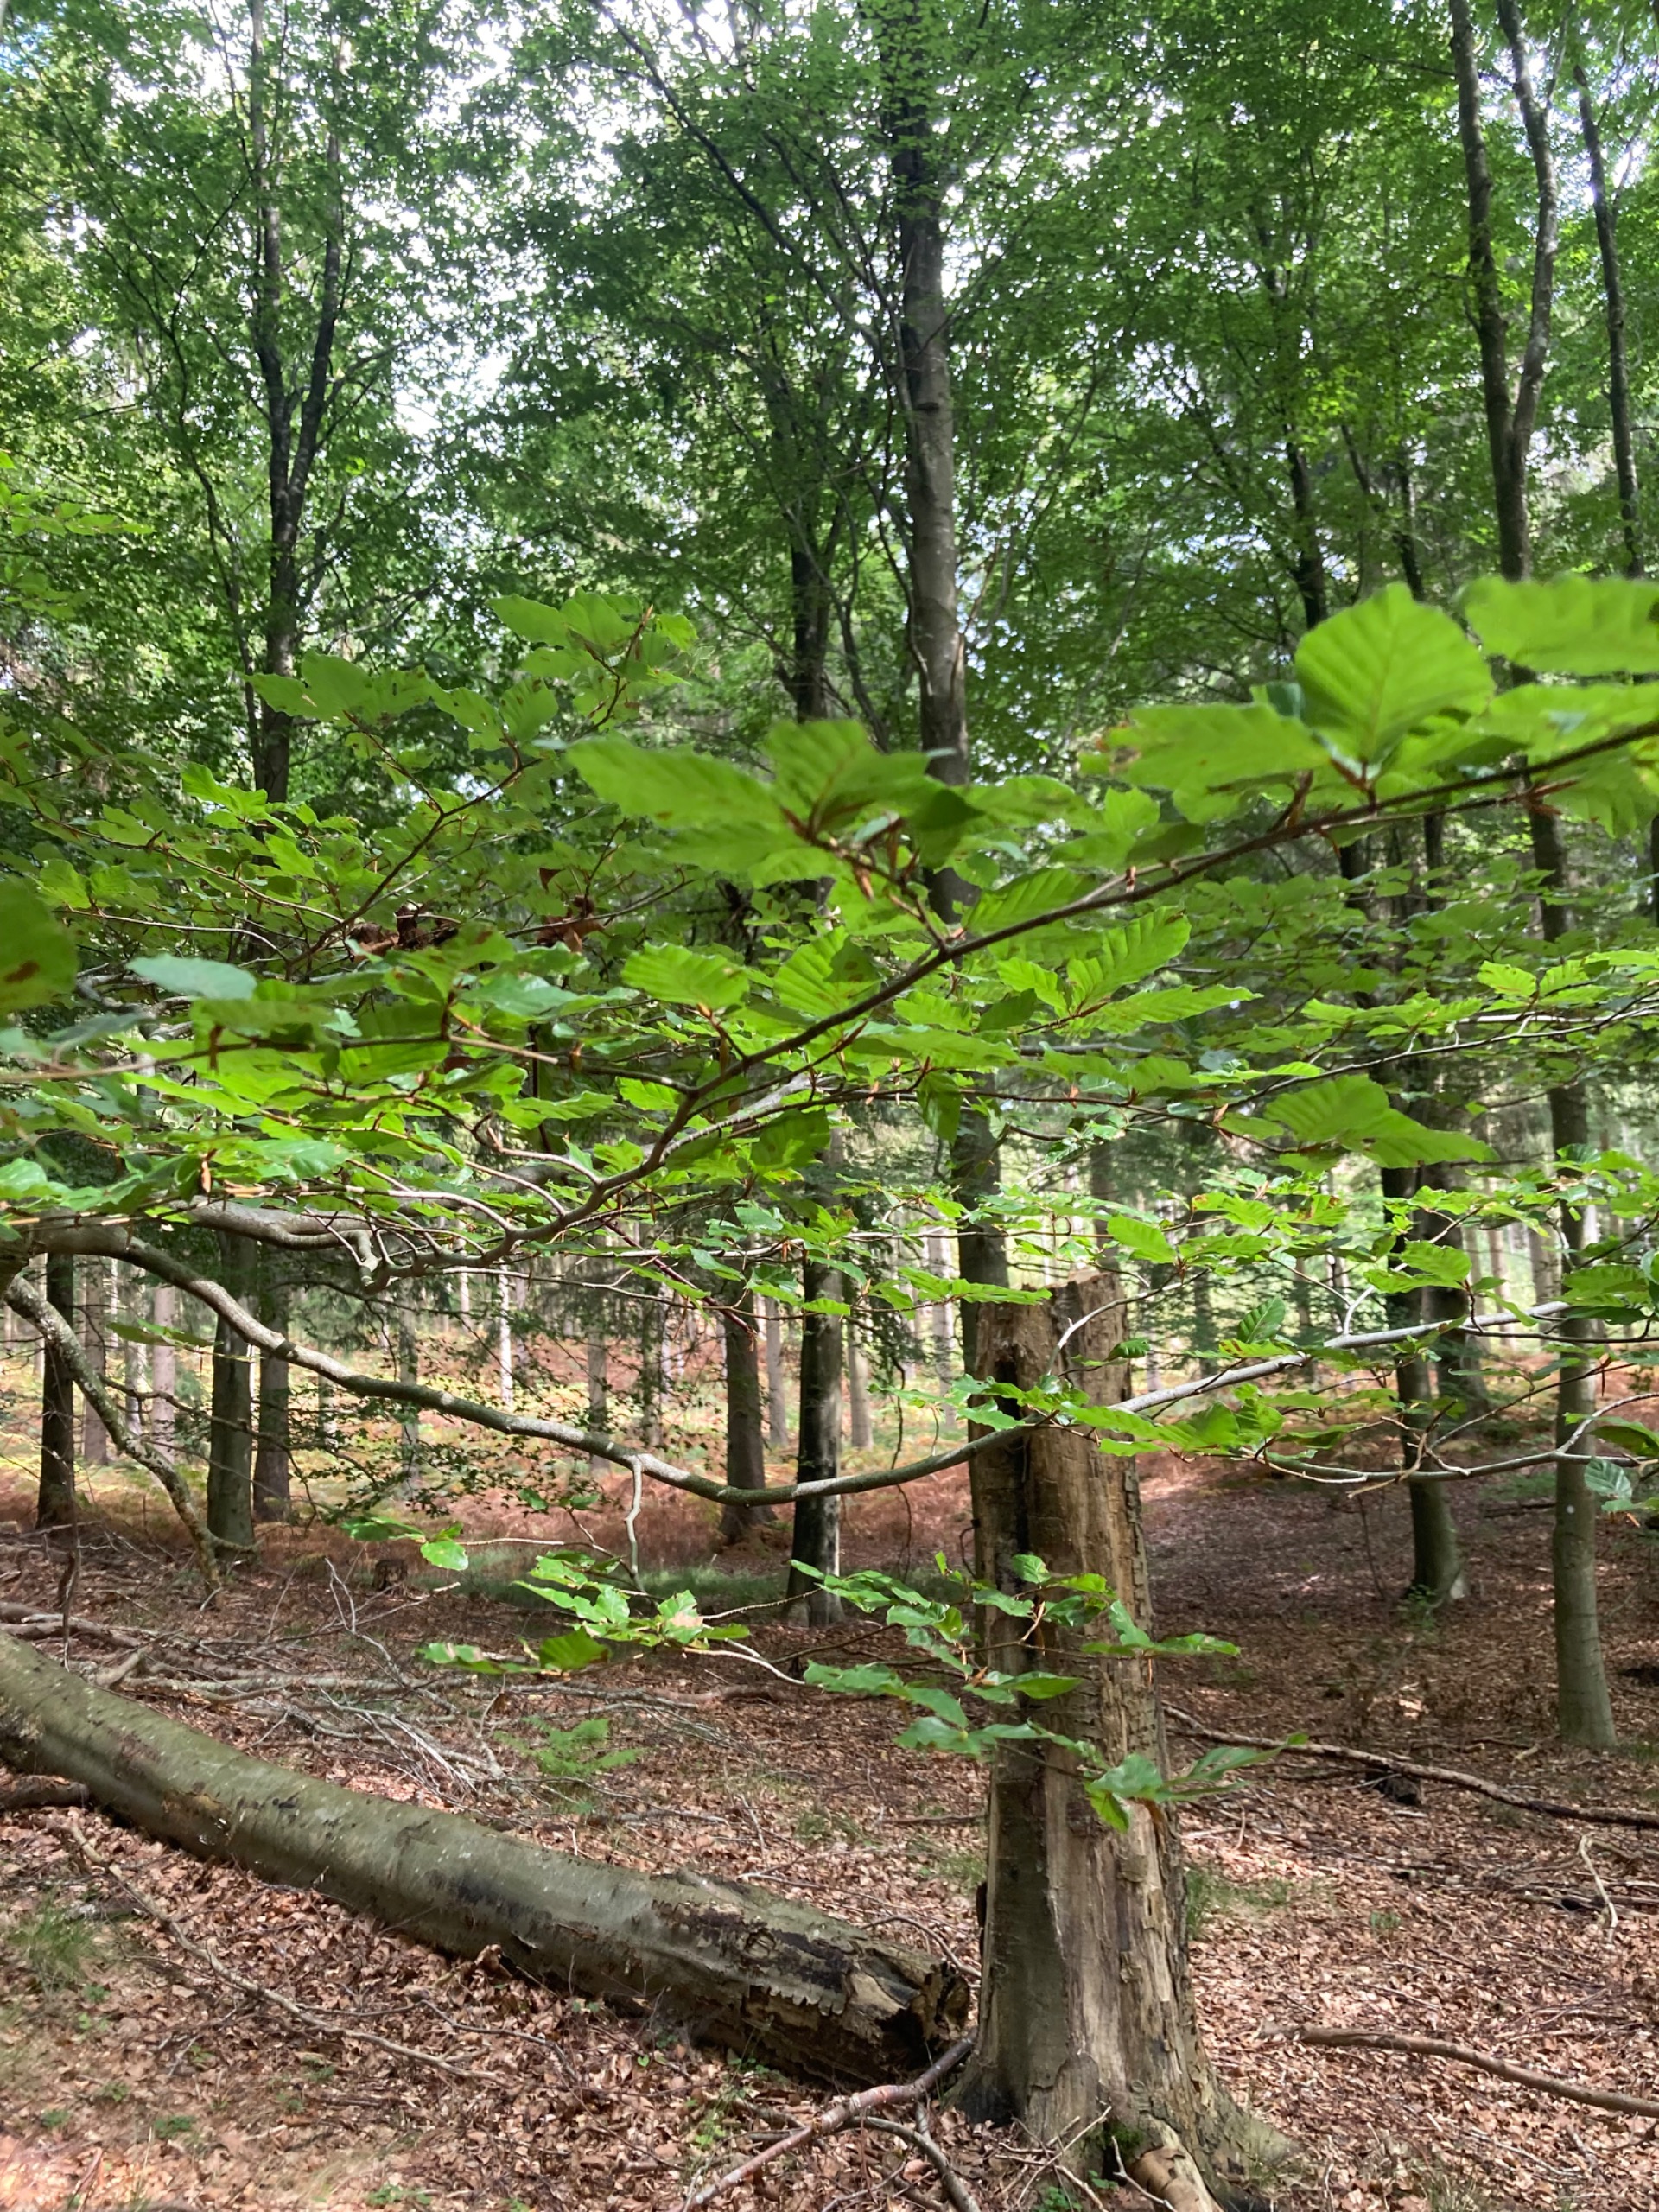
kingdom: Plantae
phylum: Tracheophyta
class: Magnoliopsida
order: Fagales
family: Fagaceae
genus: Fagus
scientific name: Fagus sylvatica
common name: Bøg
